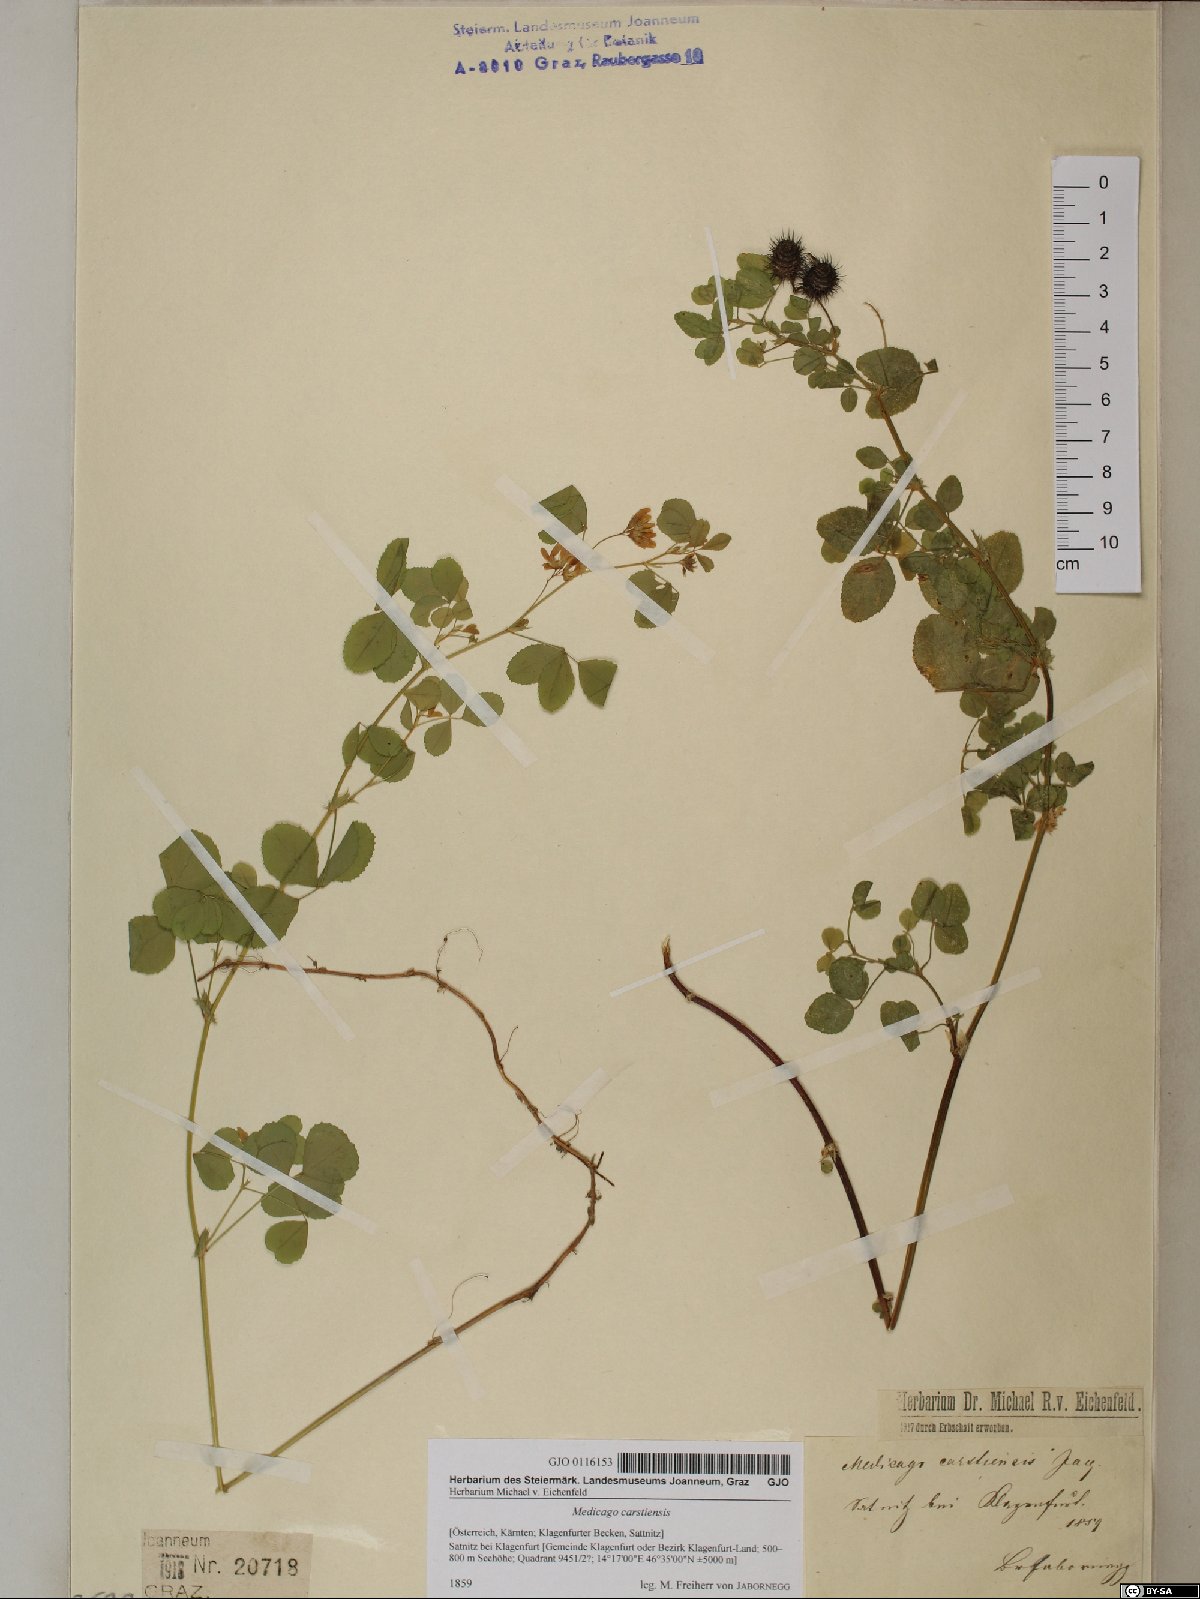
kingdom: Plantae
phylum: Tracheophyta
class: Magnoliopsida
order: Fabales
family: Fabaceae
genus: Medicago
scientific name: Medicago carstiensis
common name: Creeping-rooted medic
